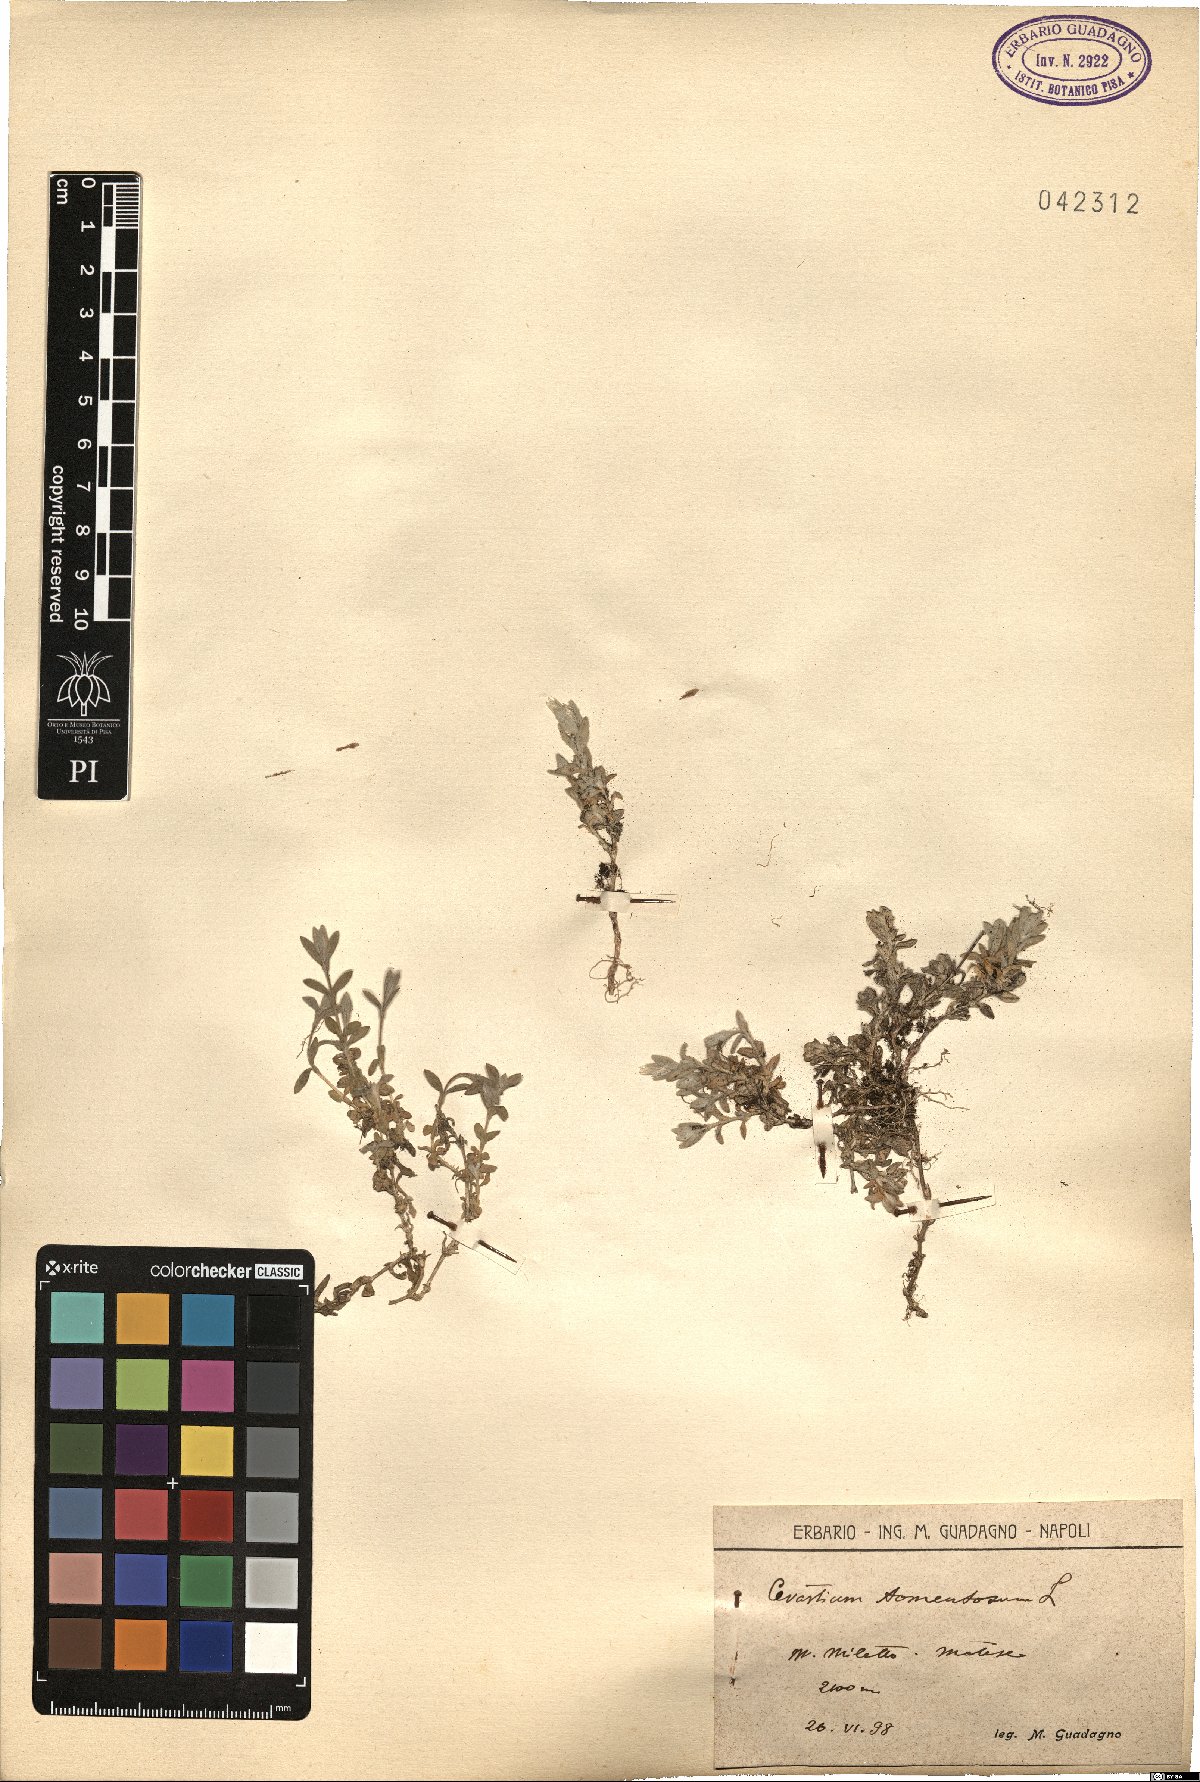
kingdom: Plantae
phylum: Tracheophyta
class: Magnoliopsida
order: Caryophyllales
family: Caryophyllaceae
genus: Cerastium
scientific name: Cerastium tomentosum
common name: Snow-in-summer
